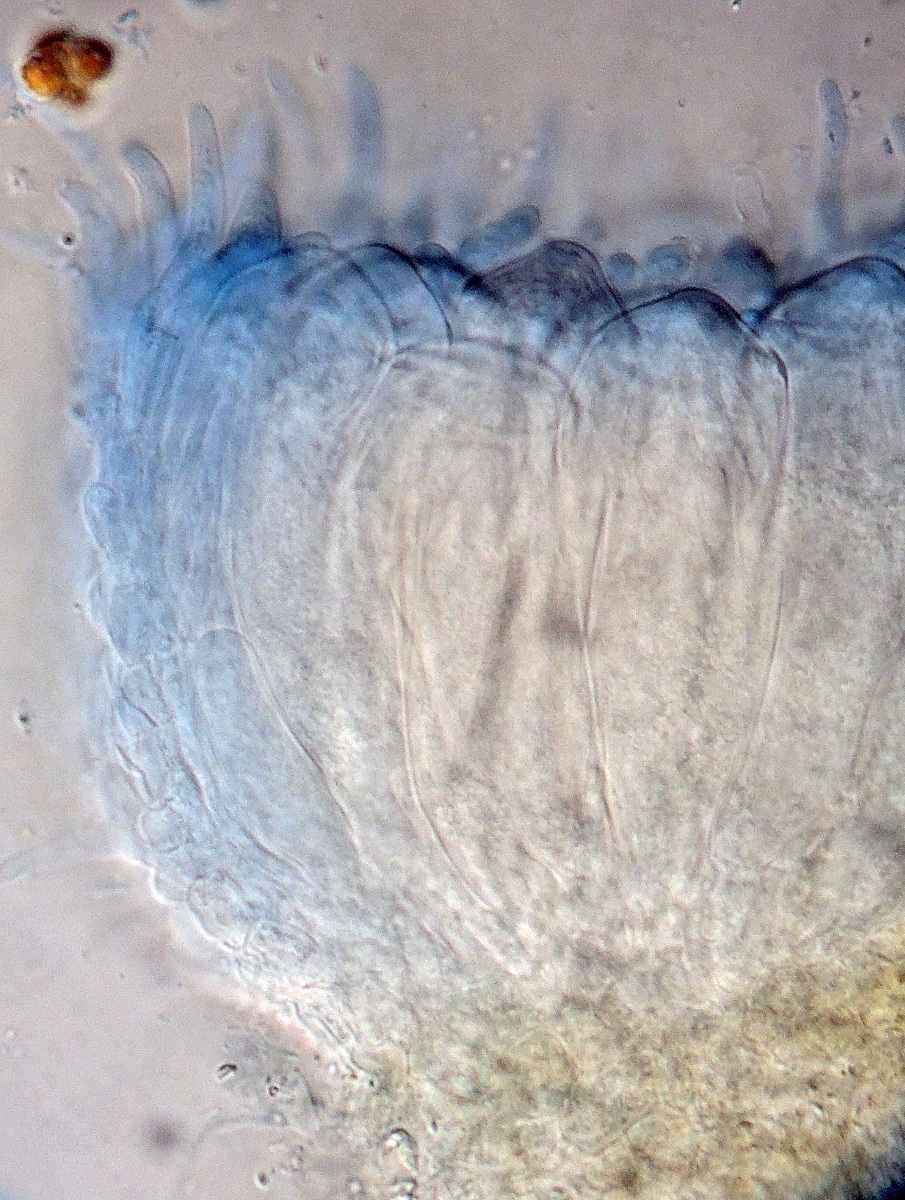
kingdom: Fungi
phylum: Ascomycota
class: Leotiomycetes
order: Thelebolales
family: Thelebolaceae
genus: Ascozonus
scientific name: Ascozonus woolhopensis
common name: vinter-ringsæk
